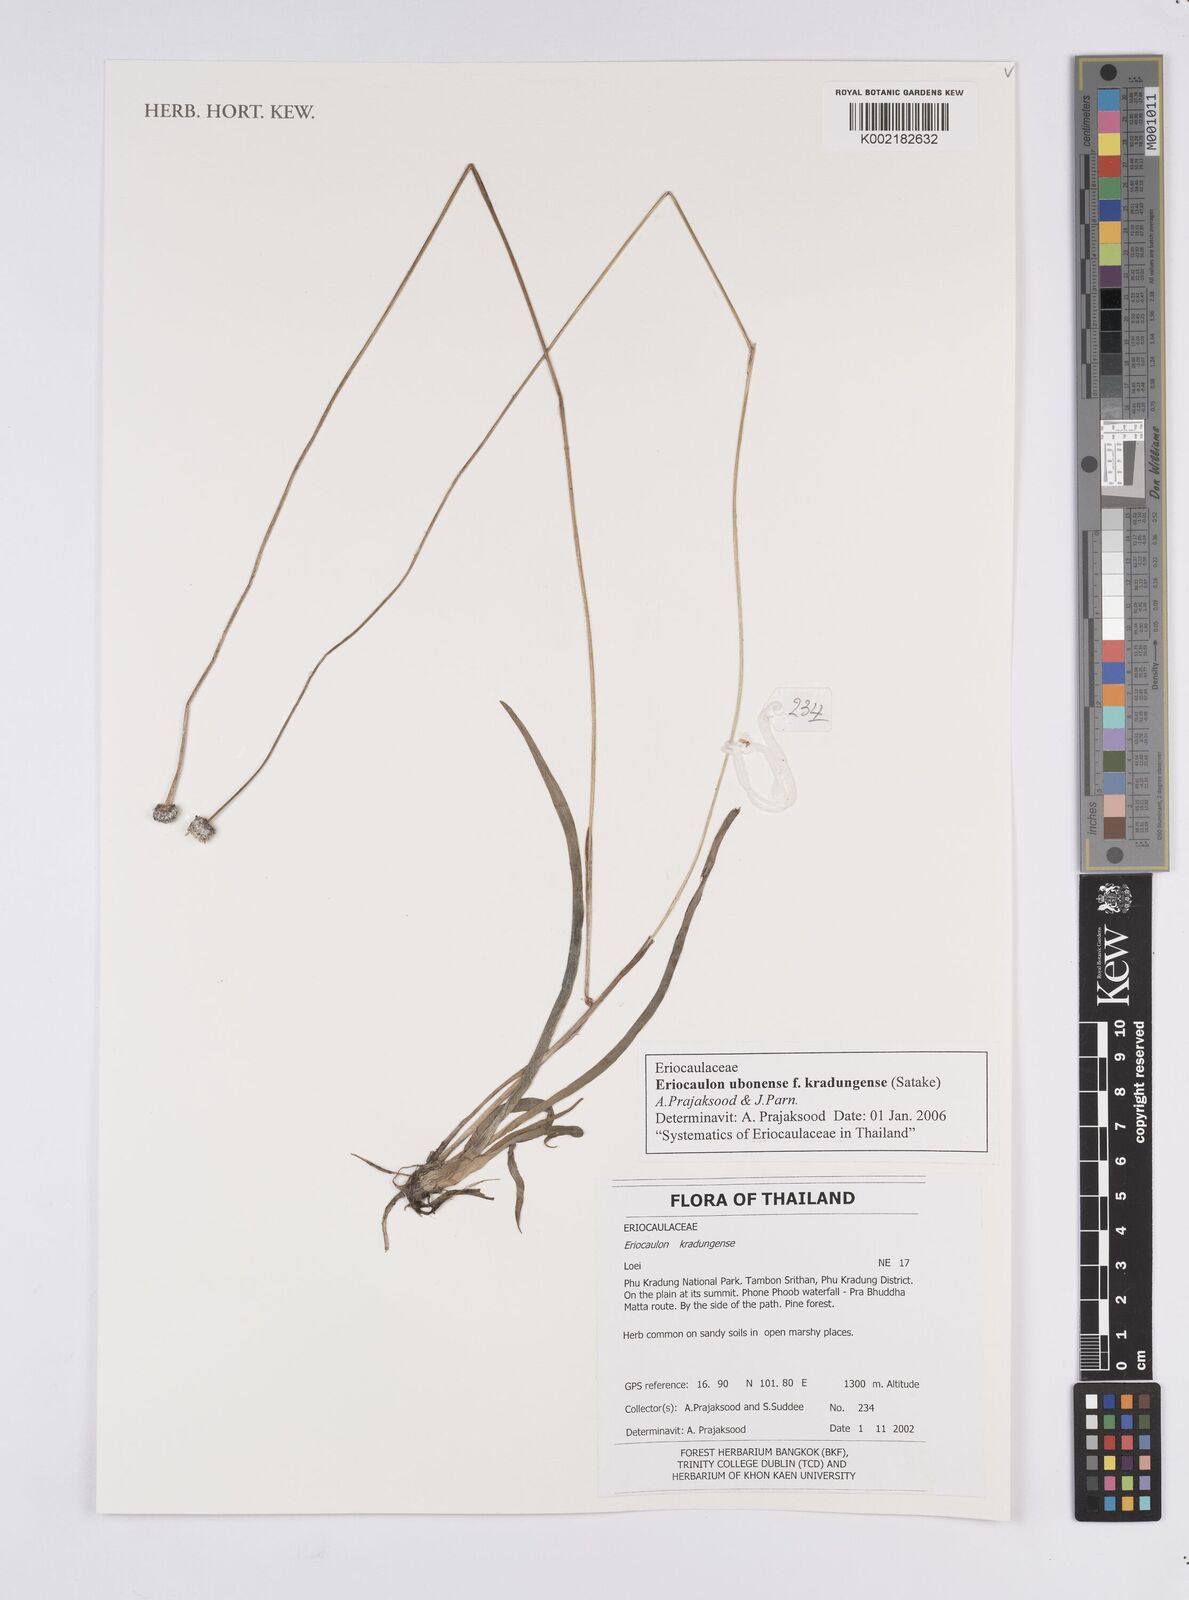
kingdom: Plantae
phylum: Tracheophyta
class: Liliopsida
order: Poales
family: Eriocaulaceae
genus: Eriocaulon
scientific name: Eriocaulon ubonense
